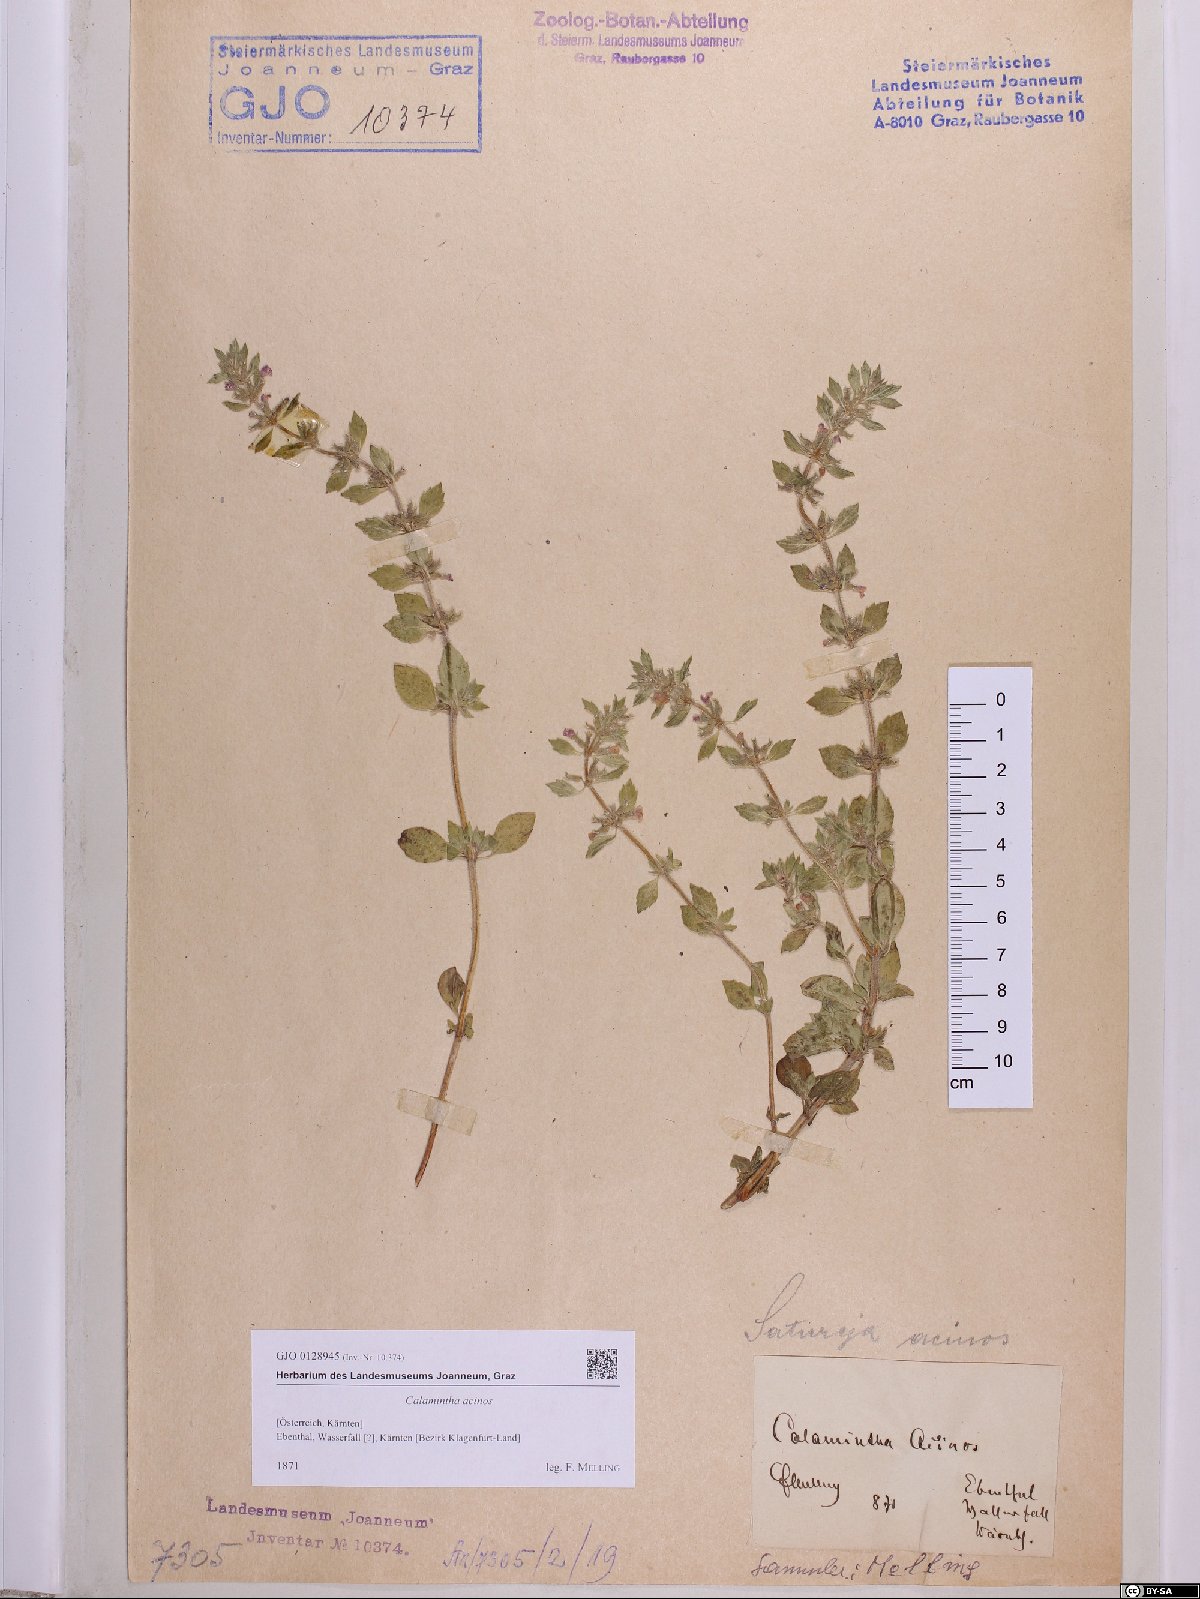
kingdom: Plantae
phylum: Tracheophyta
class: Magnoliopsida
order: Lamiales
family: Lamiaceae
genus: Clinopodium
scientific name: Clinopodium acinos
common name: Basil thyme
